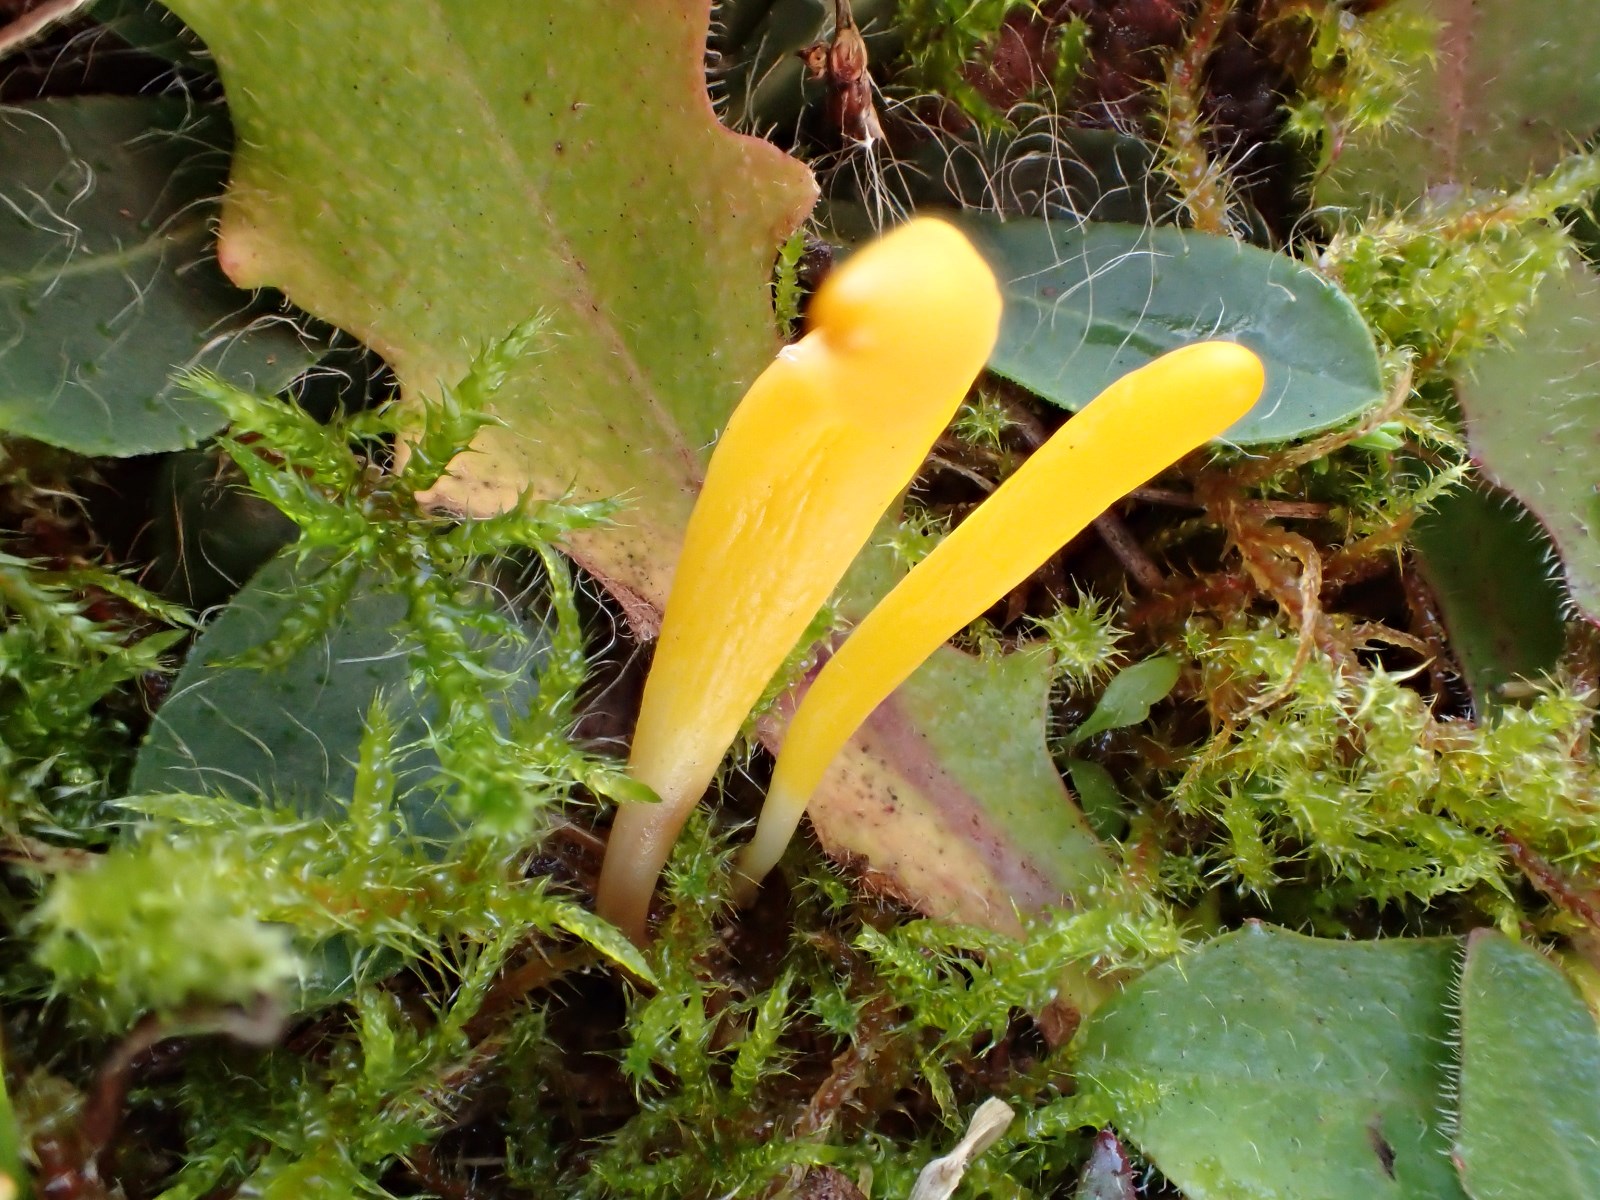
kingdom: Fungi
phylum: Basidiomycota
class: Agaricomycetes
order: Agaricales
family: Clavariaceae
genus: Clavulinopsis
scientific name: Clavulinopsis helvola
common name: orangegul køllesvamp
